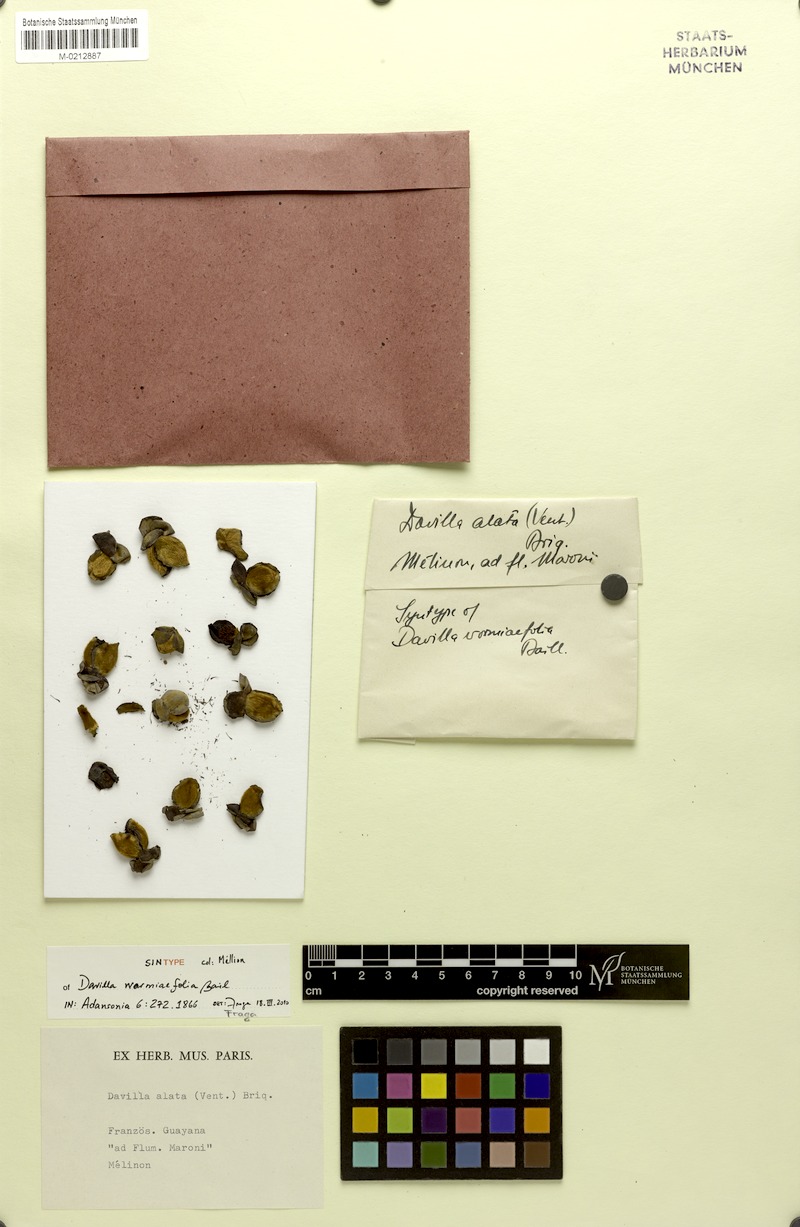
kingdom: Plantae
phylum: Tracheophyta
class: Magnoliopsida
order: Dilleniales
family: Dilleniaceae
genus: Davilla
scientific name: Davilla alata
